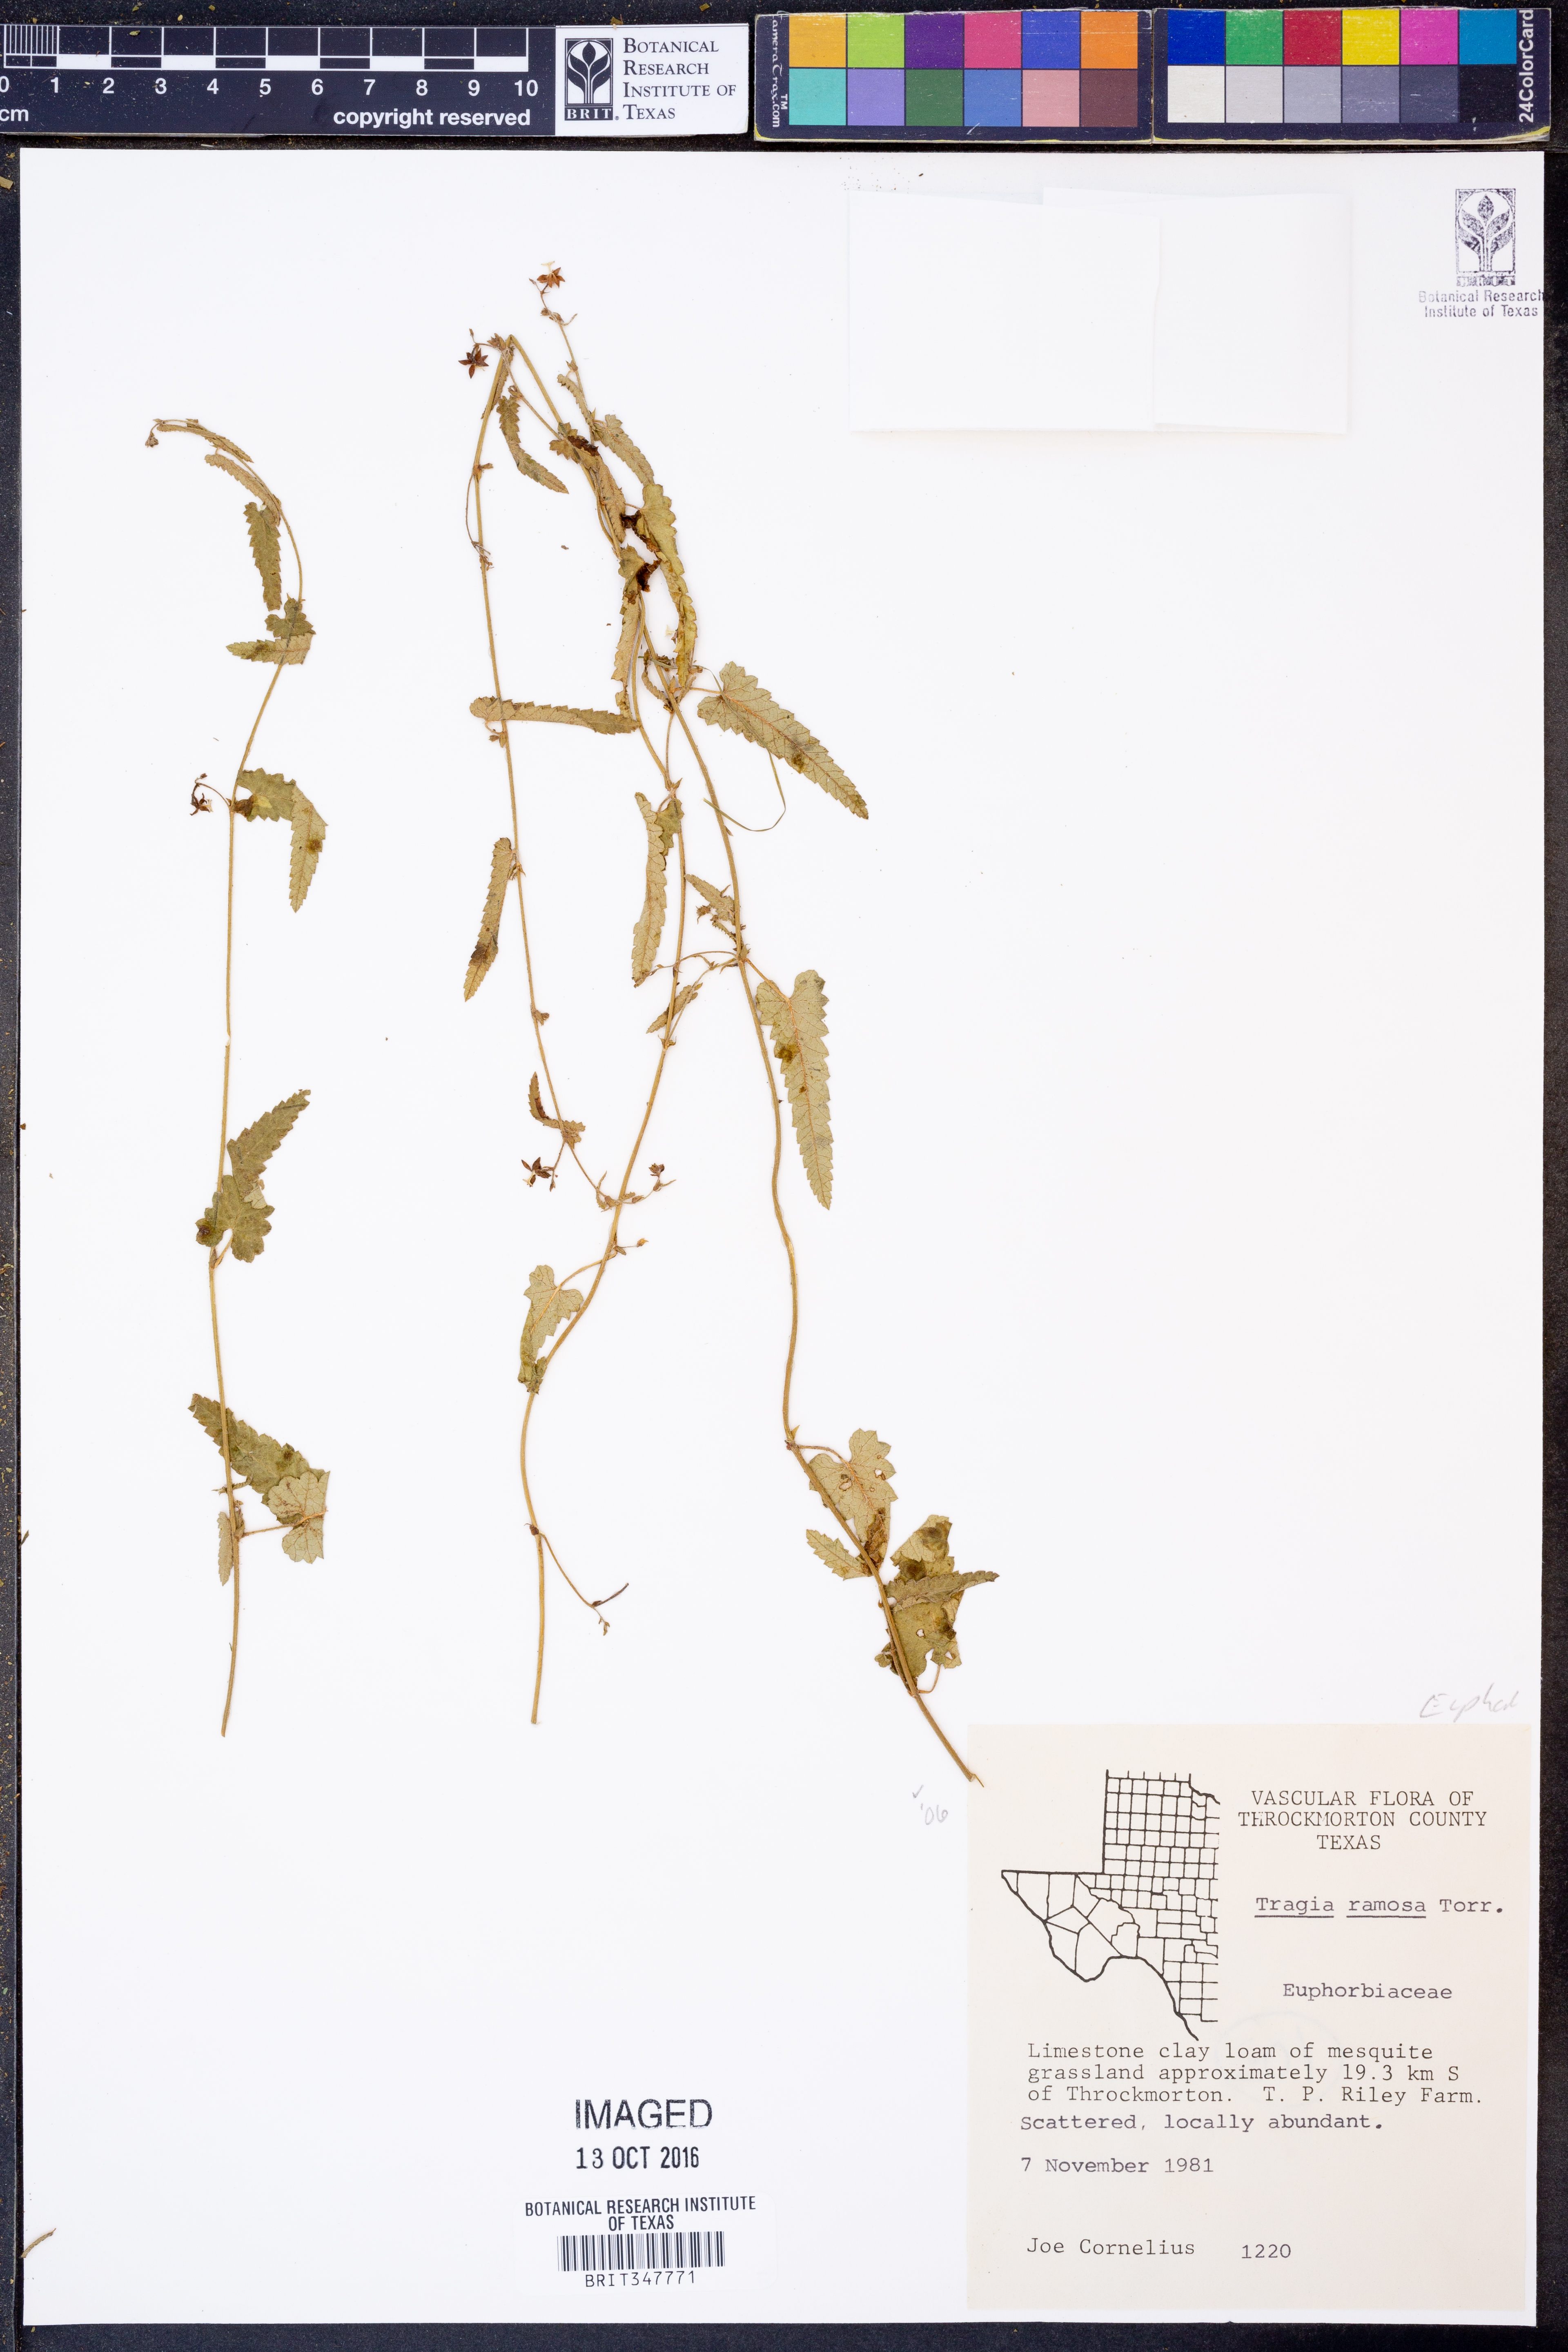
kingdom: Plantae
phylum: Tracheophyta
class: Magnoliopsida
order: Malpighiales
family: Euphorbiaceae
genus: Tragia
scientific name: Tragia ramosa
